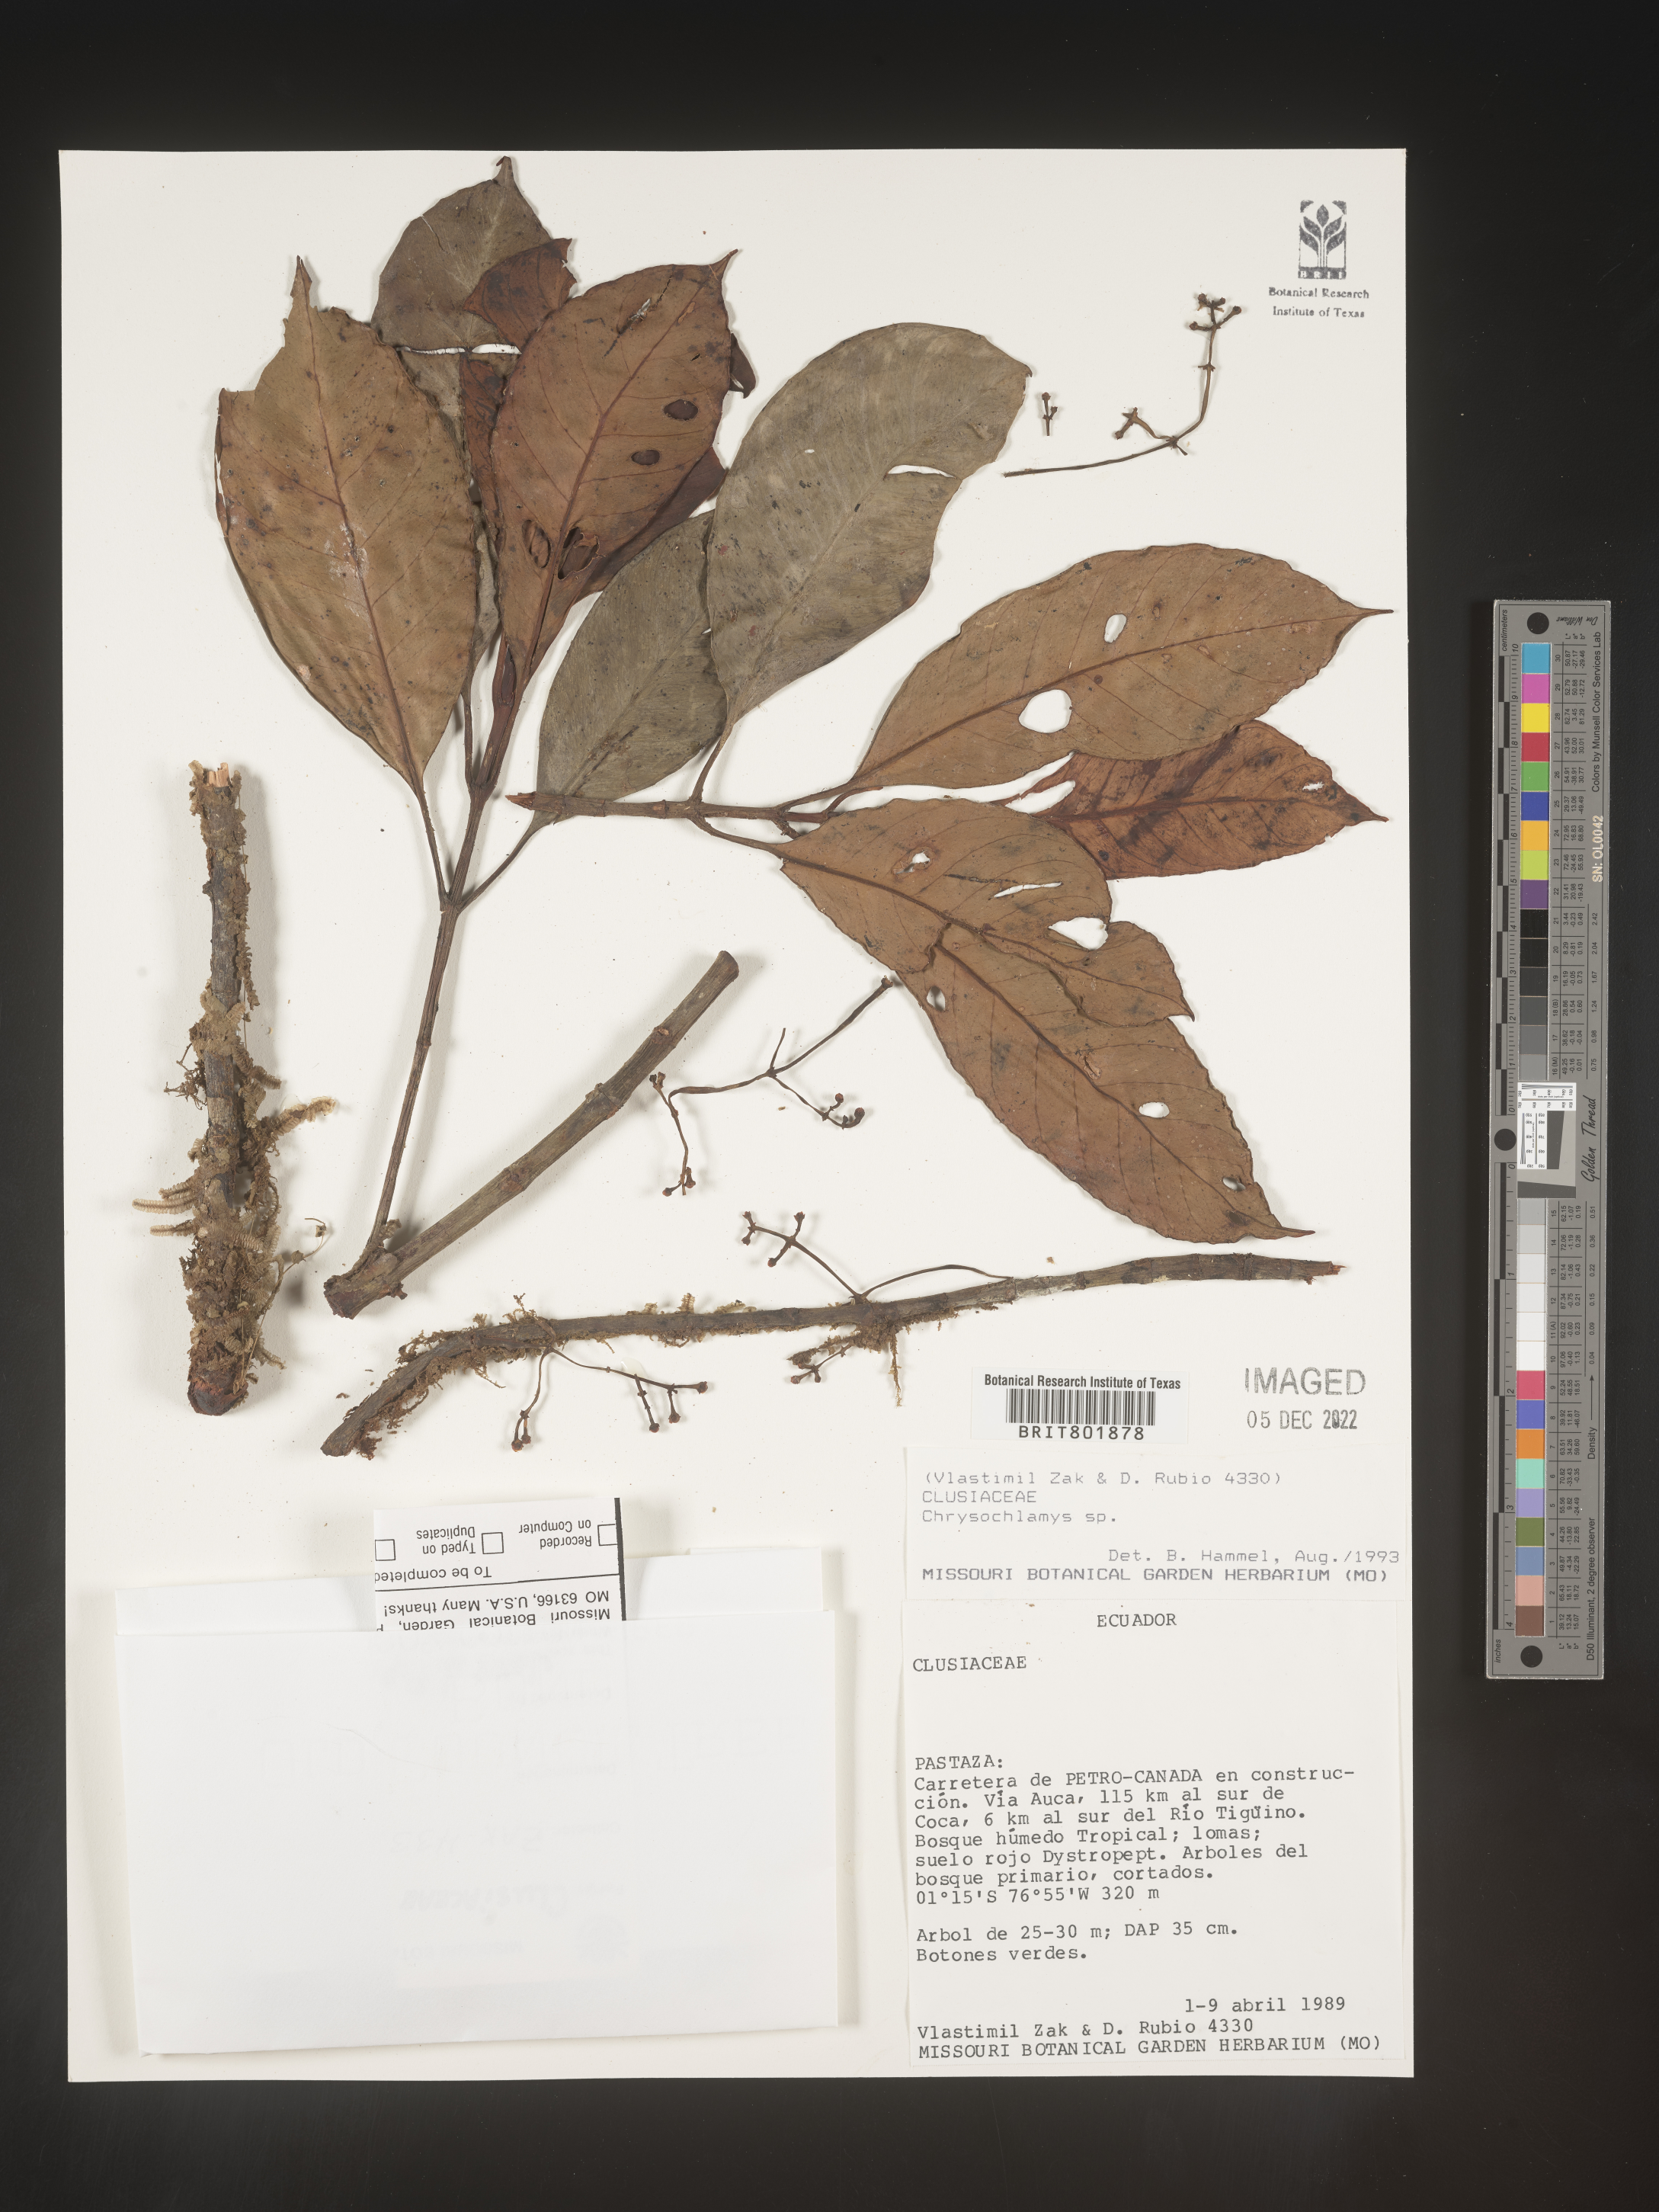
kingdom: Plantae
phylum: Tracheophyta
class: Magnoliopsida
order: Malpighiales
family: Clusiaceae
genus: Chrysochlamys
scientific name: Chrysochlamys
